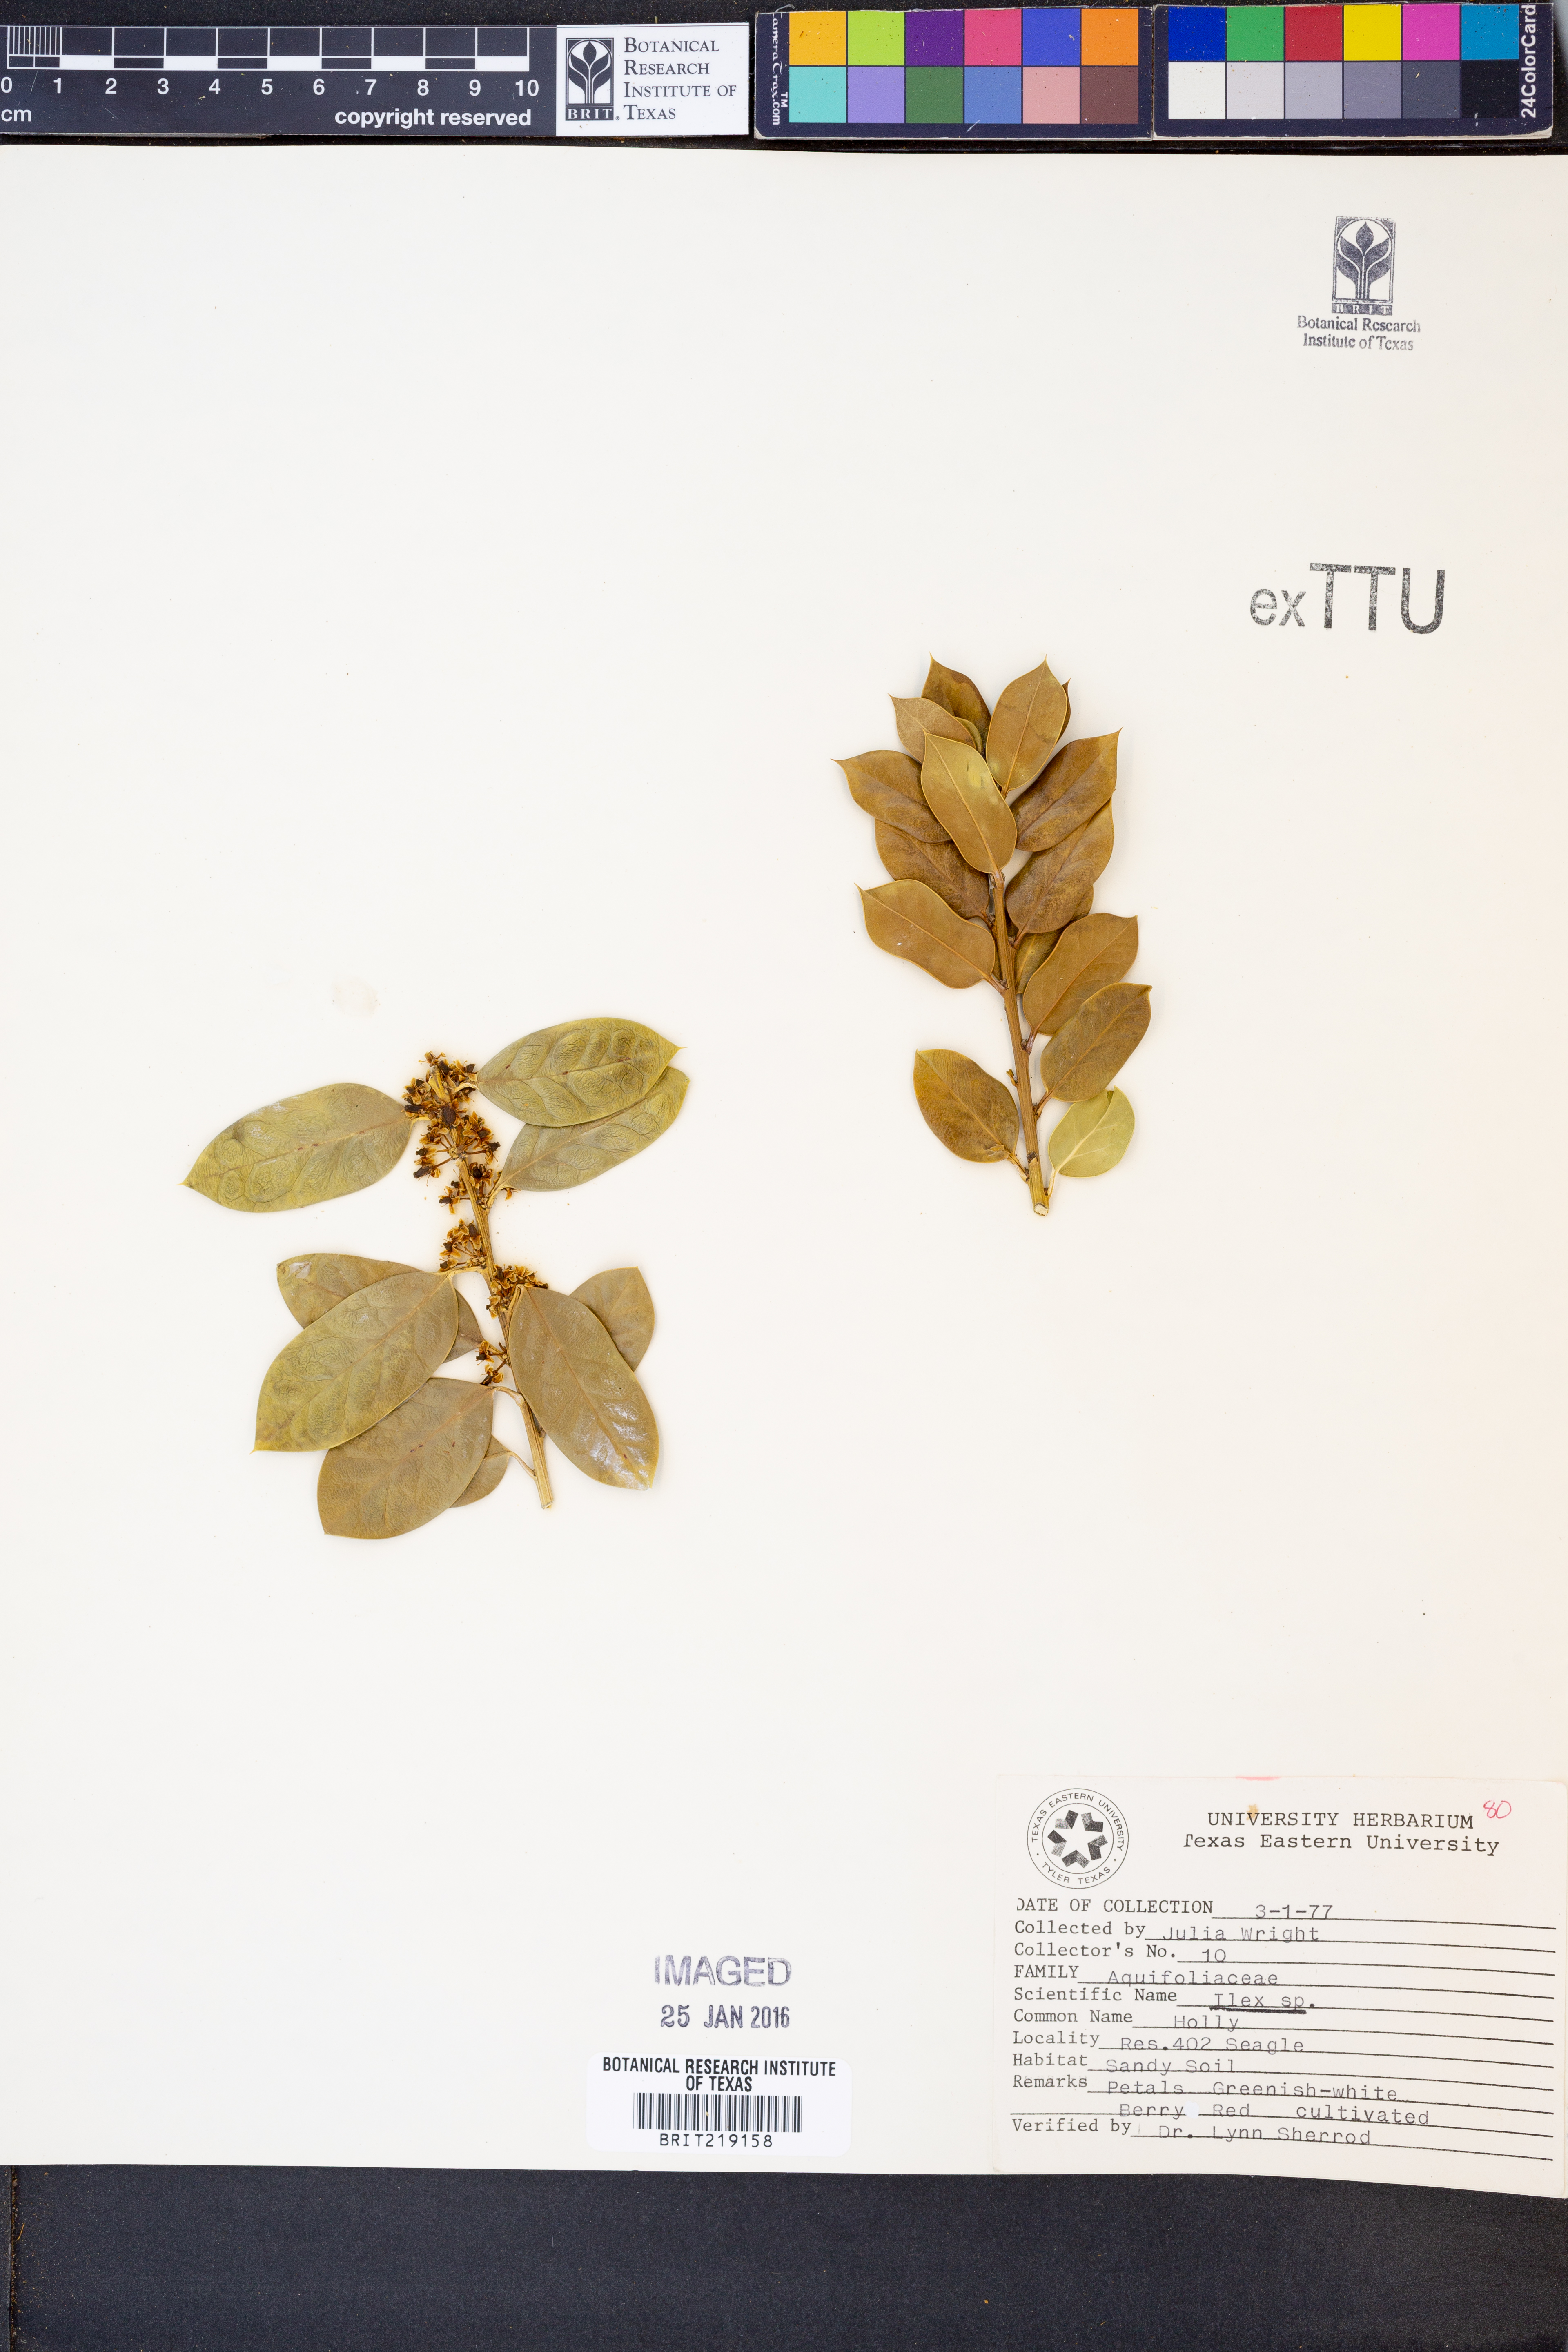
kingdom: Plantae
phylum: Tracheophyta
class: Magnoliopsida
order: Aquifoliales
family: Aquifoliaceae
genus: Ilex
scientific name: Ilex
